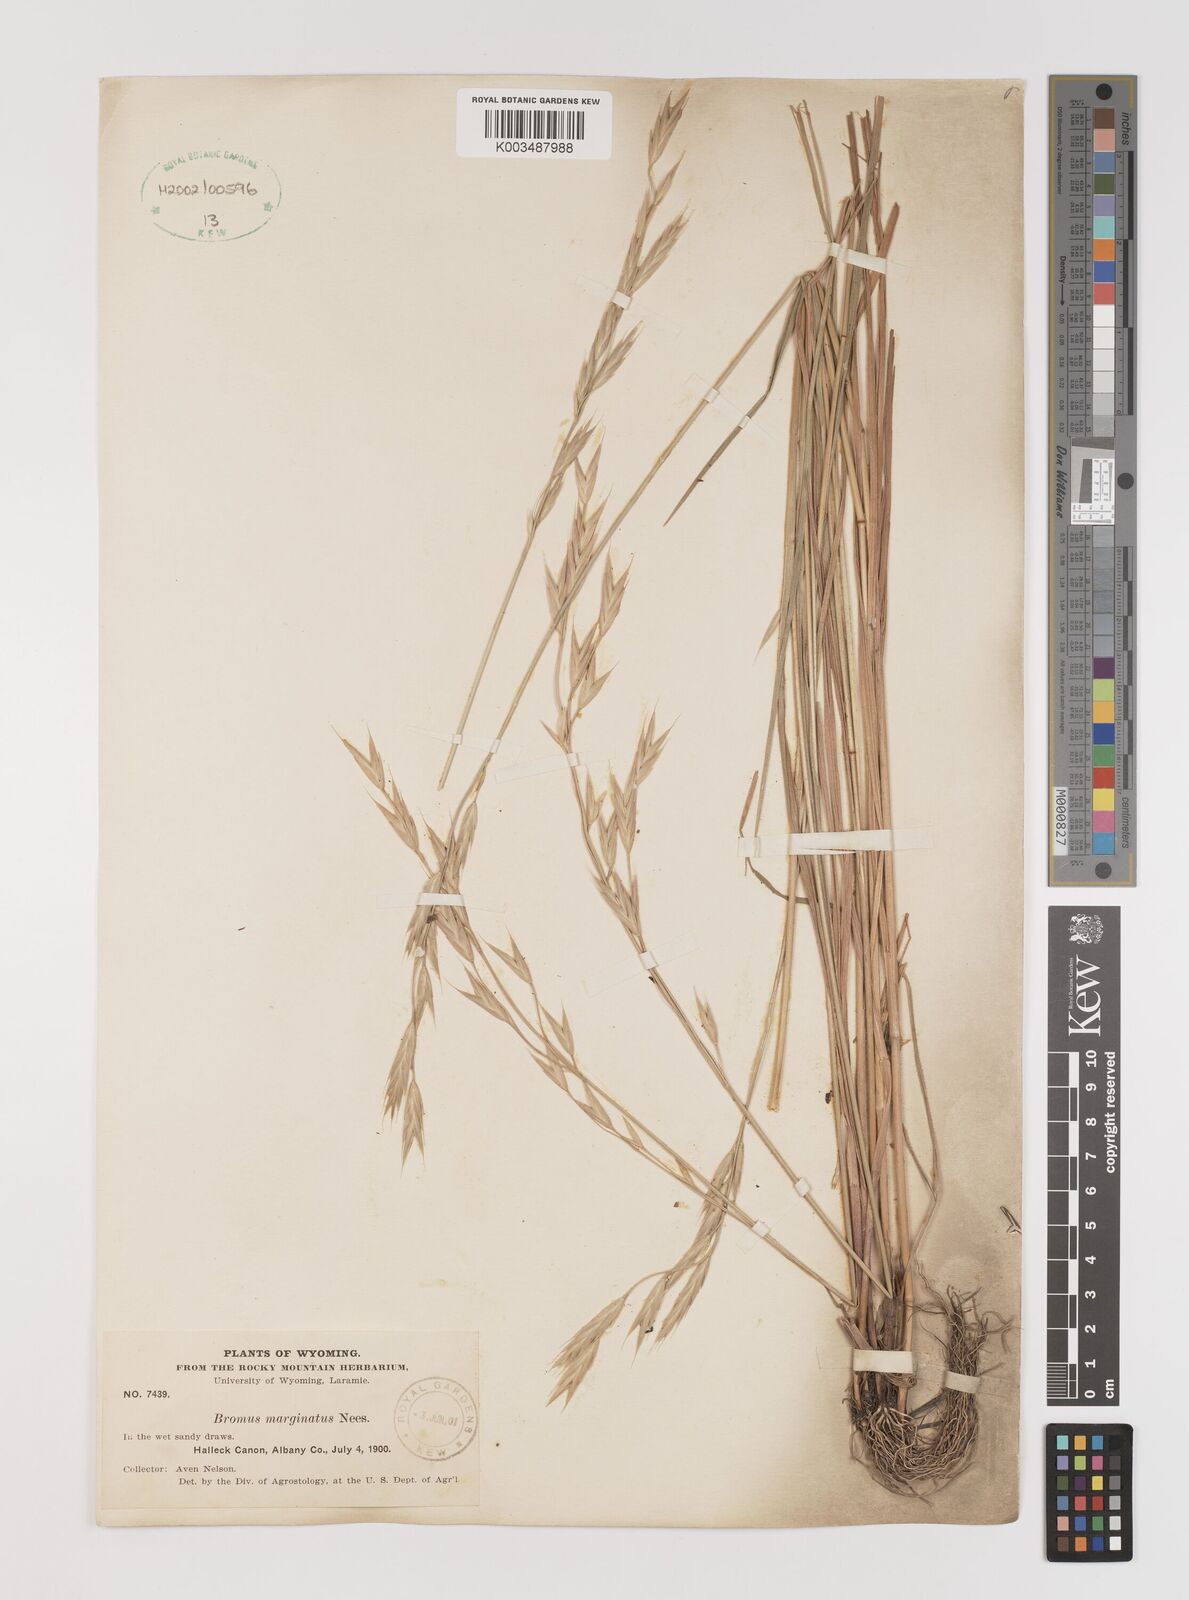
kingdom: Plantae
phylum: Tracheophyta
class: Liliopsida
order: Poales
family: Poaceae
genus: Bromus
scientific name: Bromus marginatus
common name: Western brome
